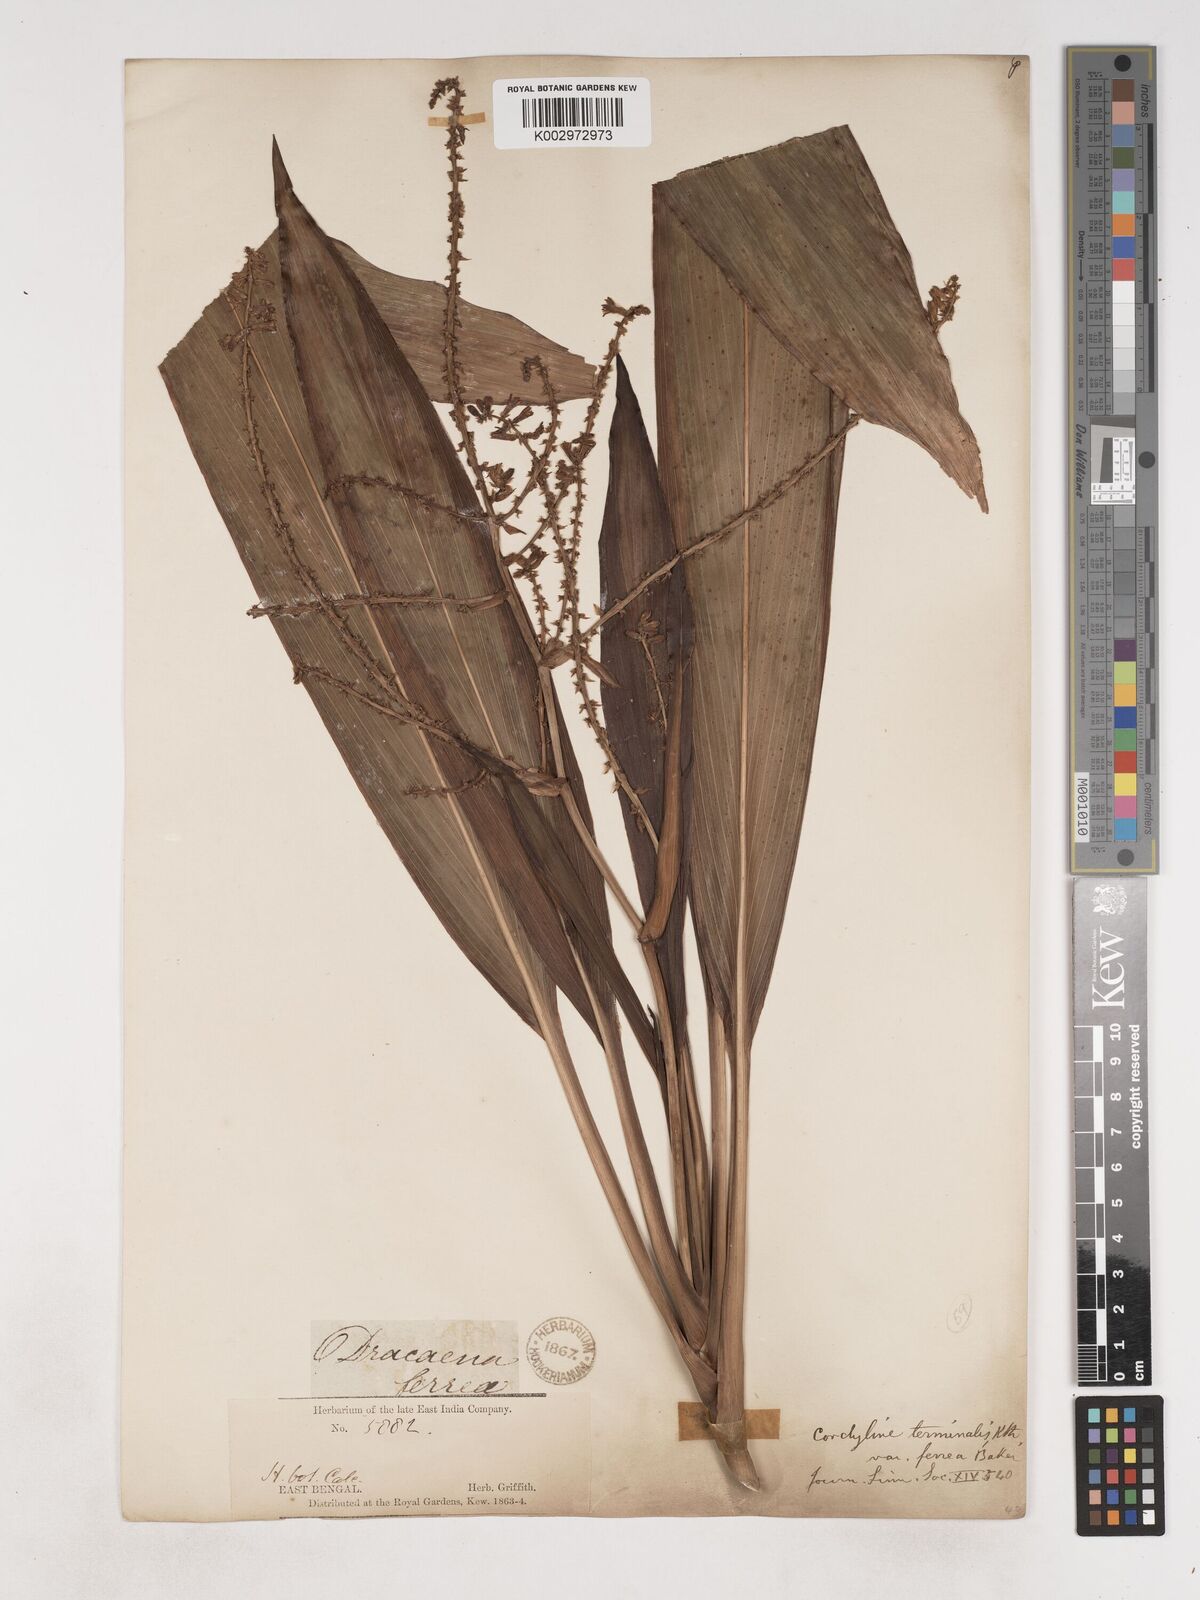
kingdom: Plantae
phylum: Tracheophyta
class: Liliopsida
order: Asparagales
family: Asparagaceae
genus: Cordyline
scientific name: Cordyline fruticosa
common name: Good-luck-plant
